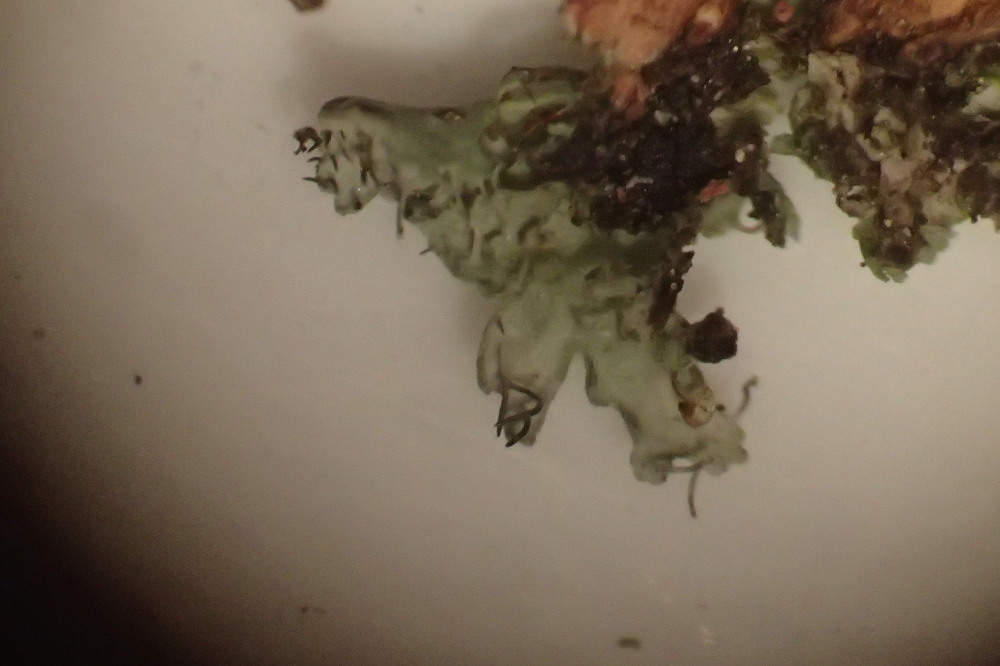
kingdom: Fungi
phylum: Ascomycota
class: Lecanoromycetes
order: Caliciales
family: Physciaceae
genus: Physcia
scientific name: Physcia tenella
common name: spæd rosetlav
